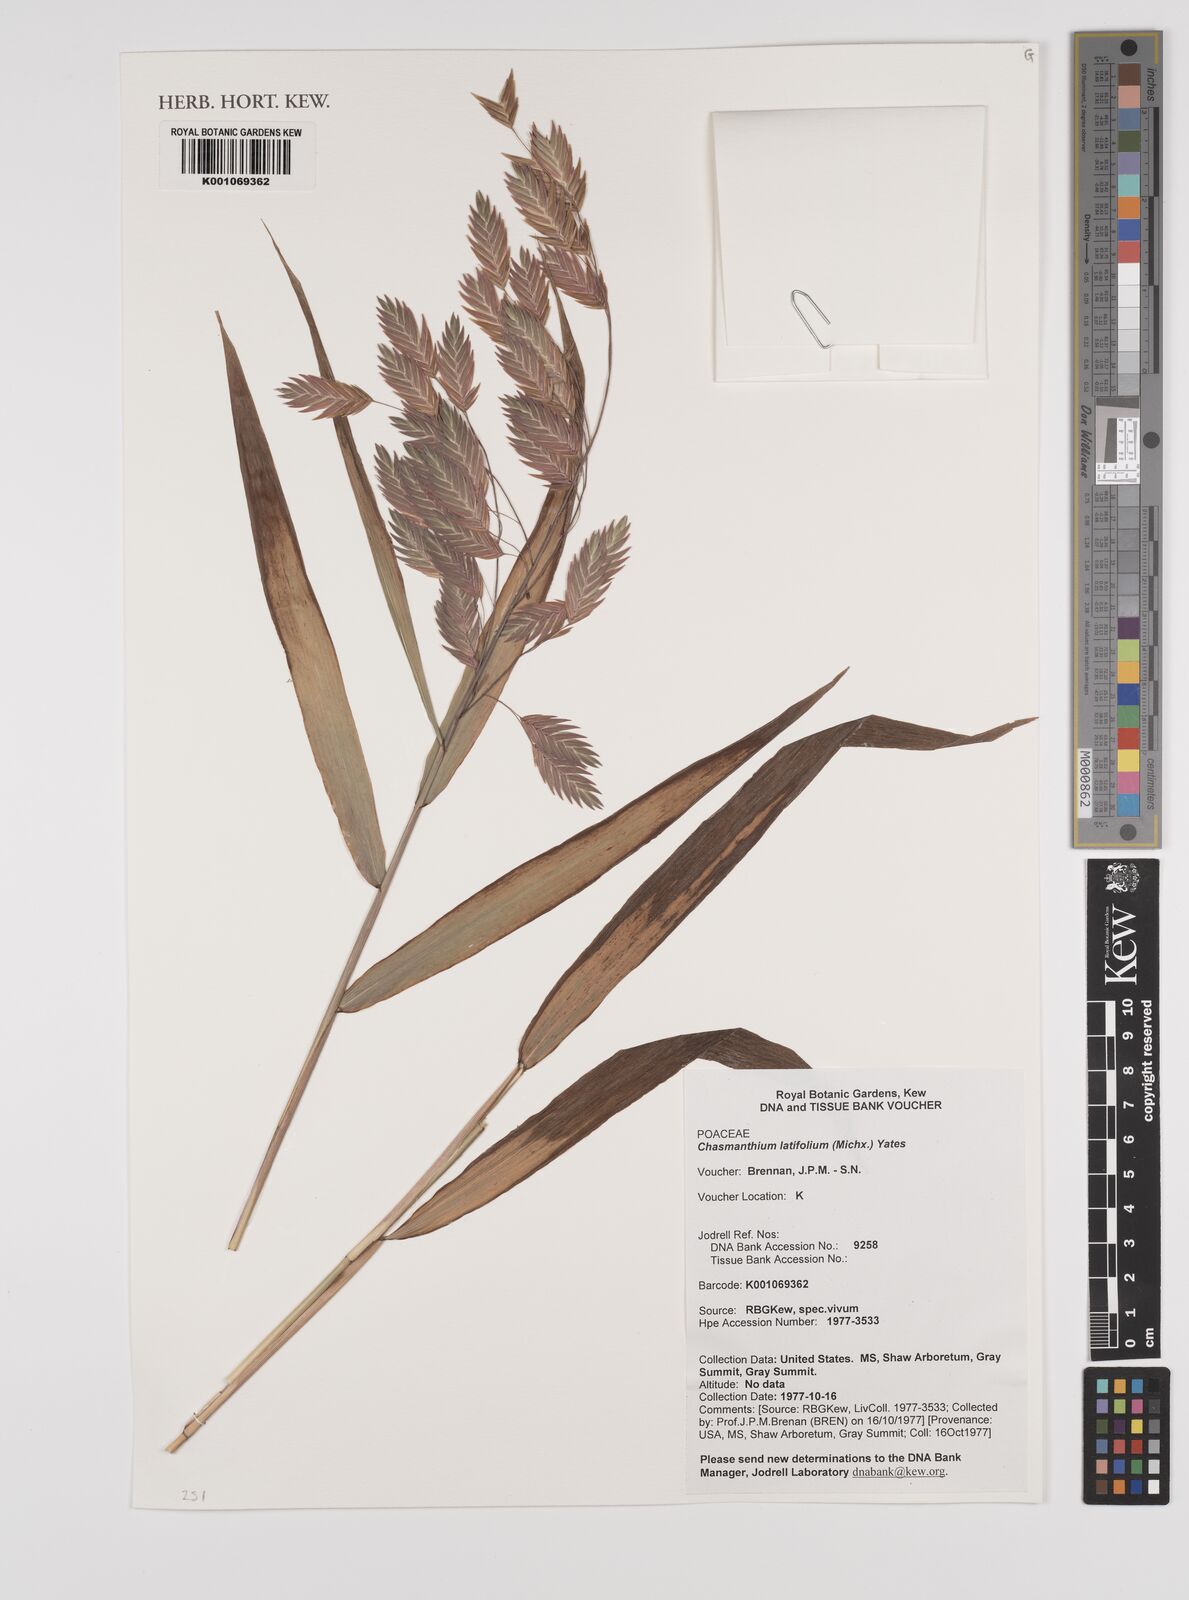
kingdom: Plantae
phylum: Tracheophyta
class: Liliopsida
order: Poales
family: Poaceae
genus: Chasmanthium
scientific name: Chasmanthium latifolium
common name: Broad-leaved chasmanthium
